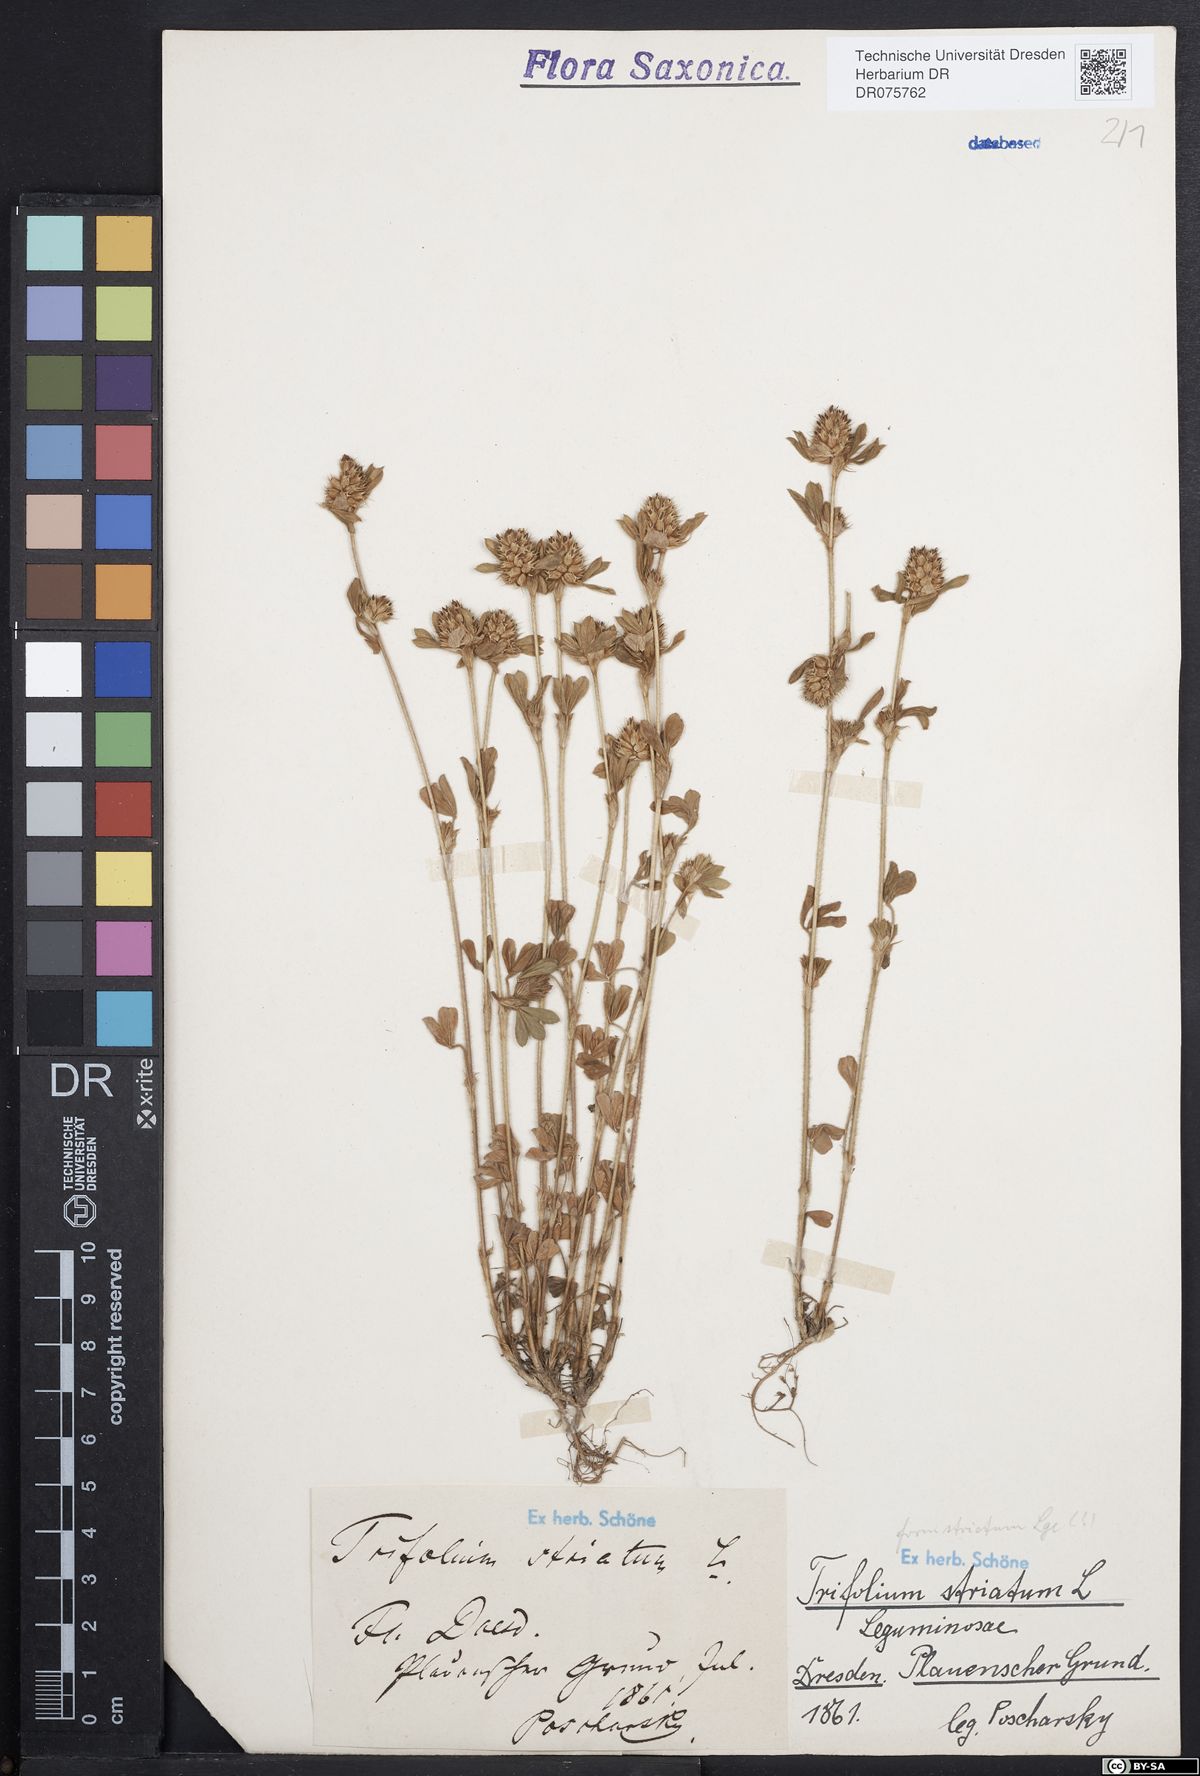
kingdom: Plantae
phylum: Tracheophyta
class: Magnoliopsida
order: Fabales
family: Fabaceae
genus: Trifolium
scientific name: Trifolium striatum
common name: Knotted clover
